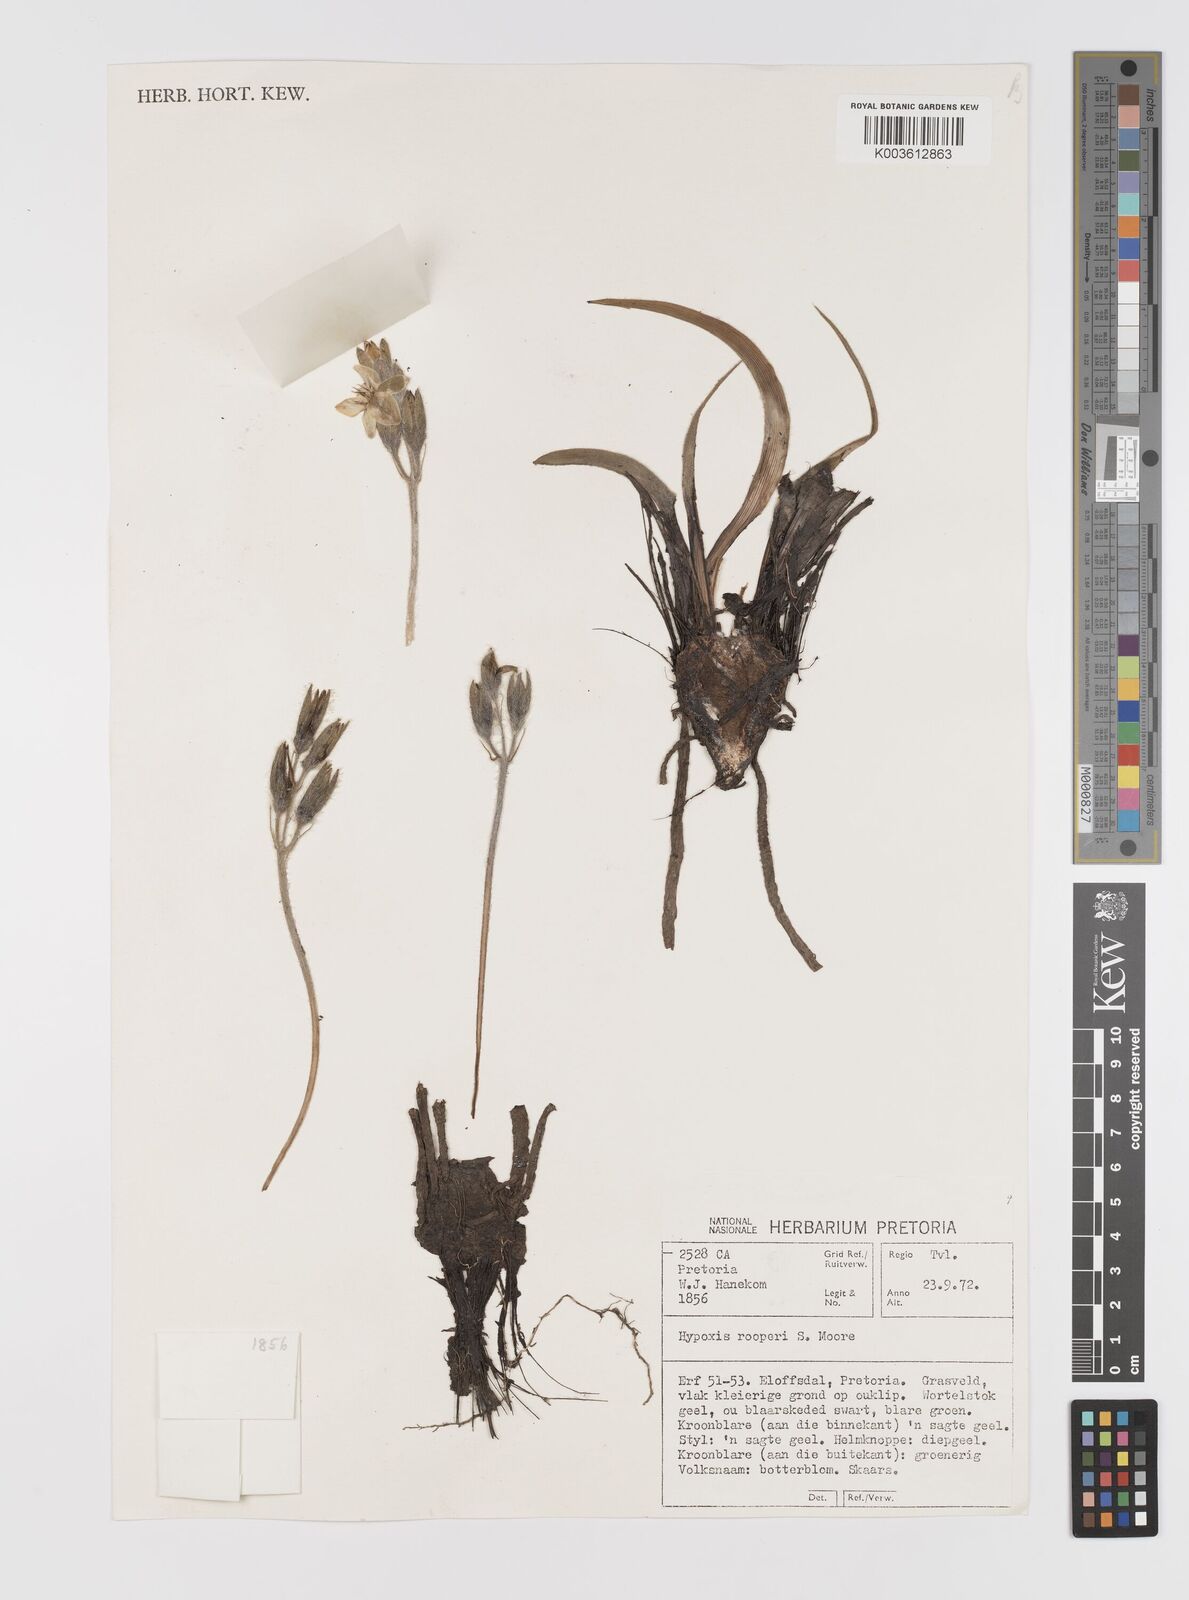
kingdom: Plantae
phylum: Tracheophyta
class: Liliopsida
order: Asparagales
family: Hypoxidaceae
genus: Hypoxis
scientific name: Hypoxis hemerocallidea
